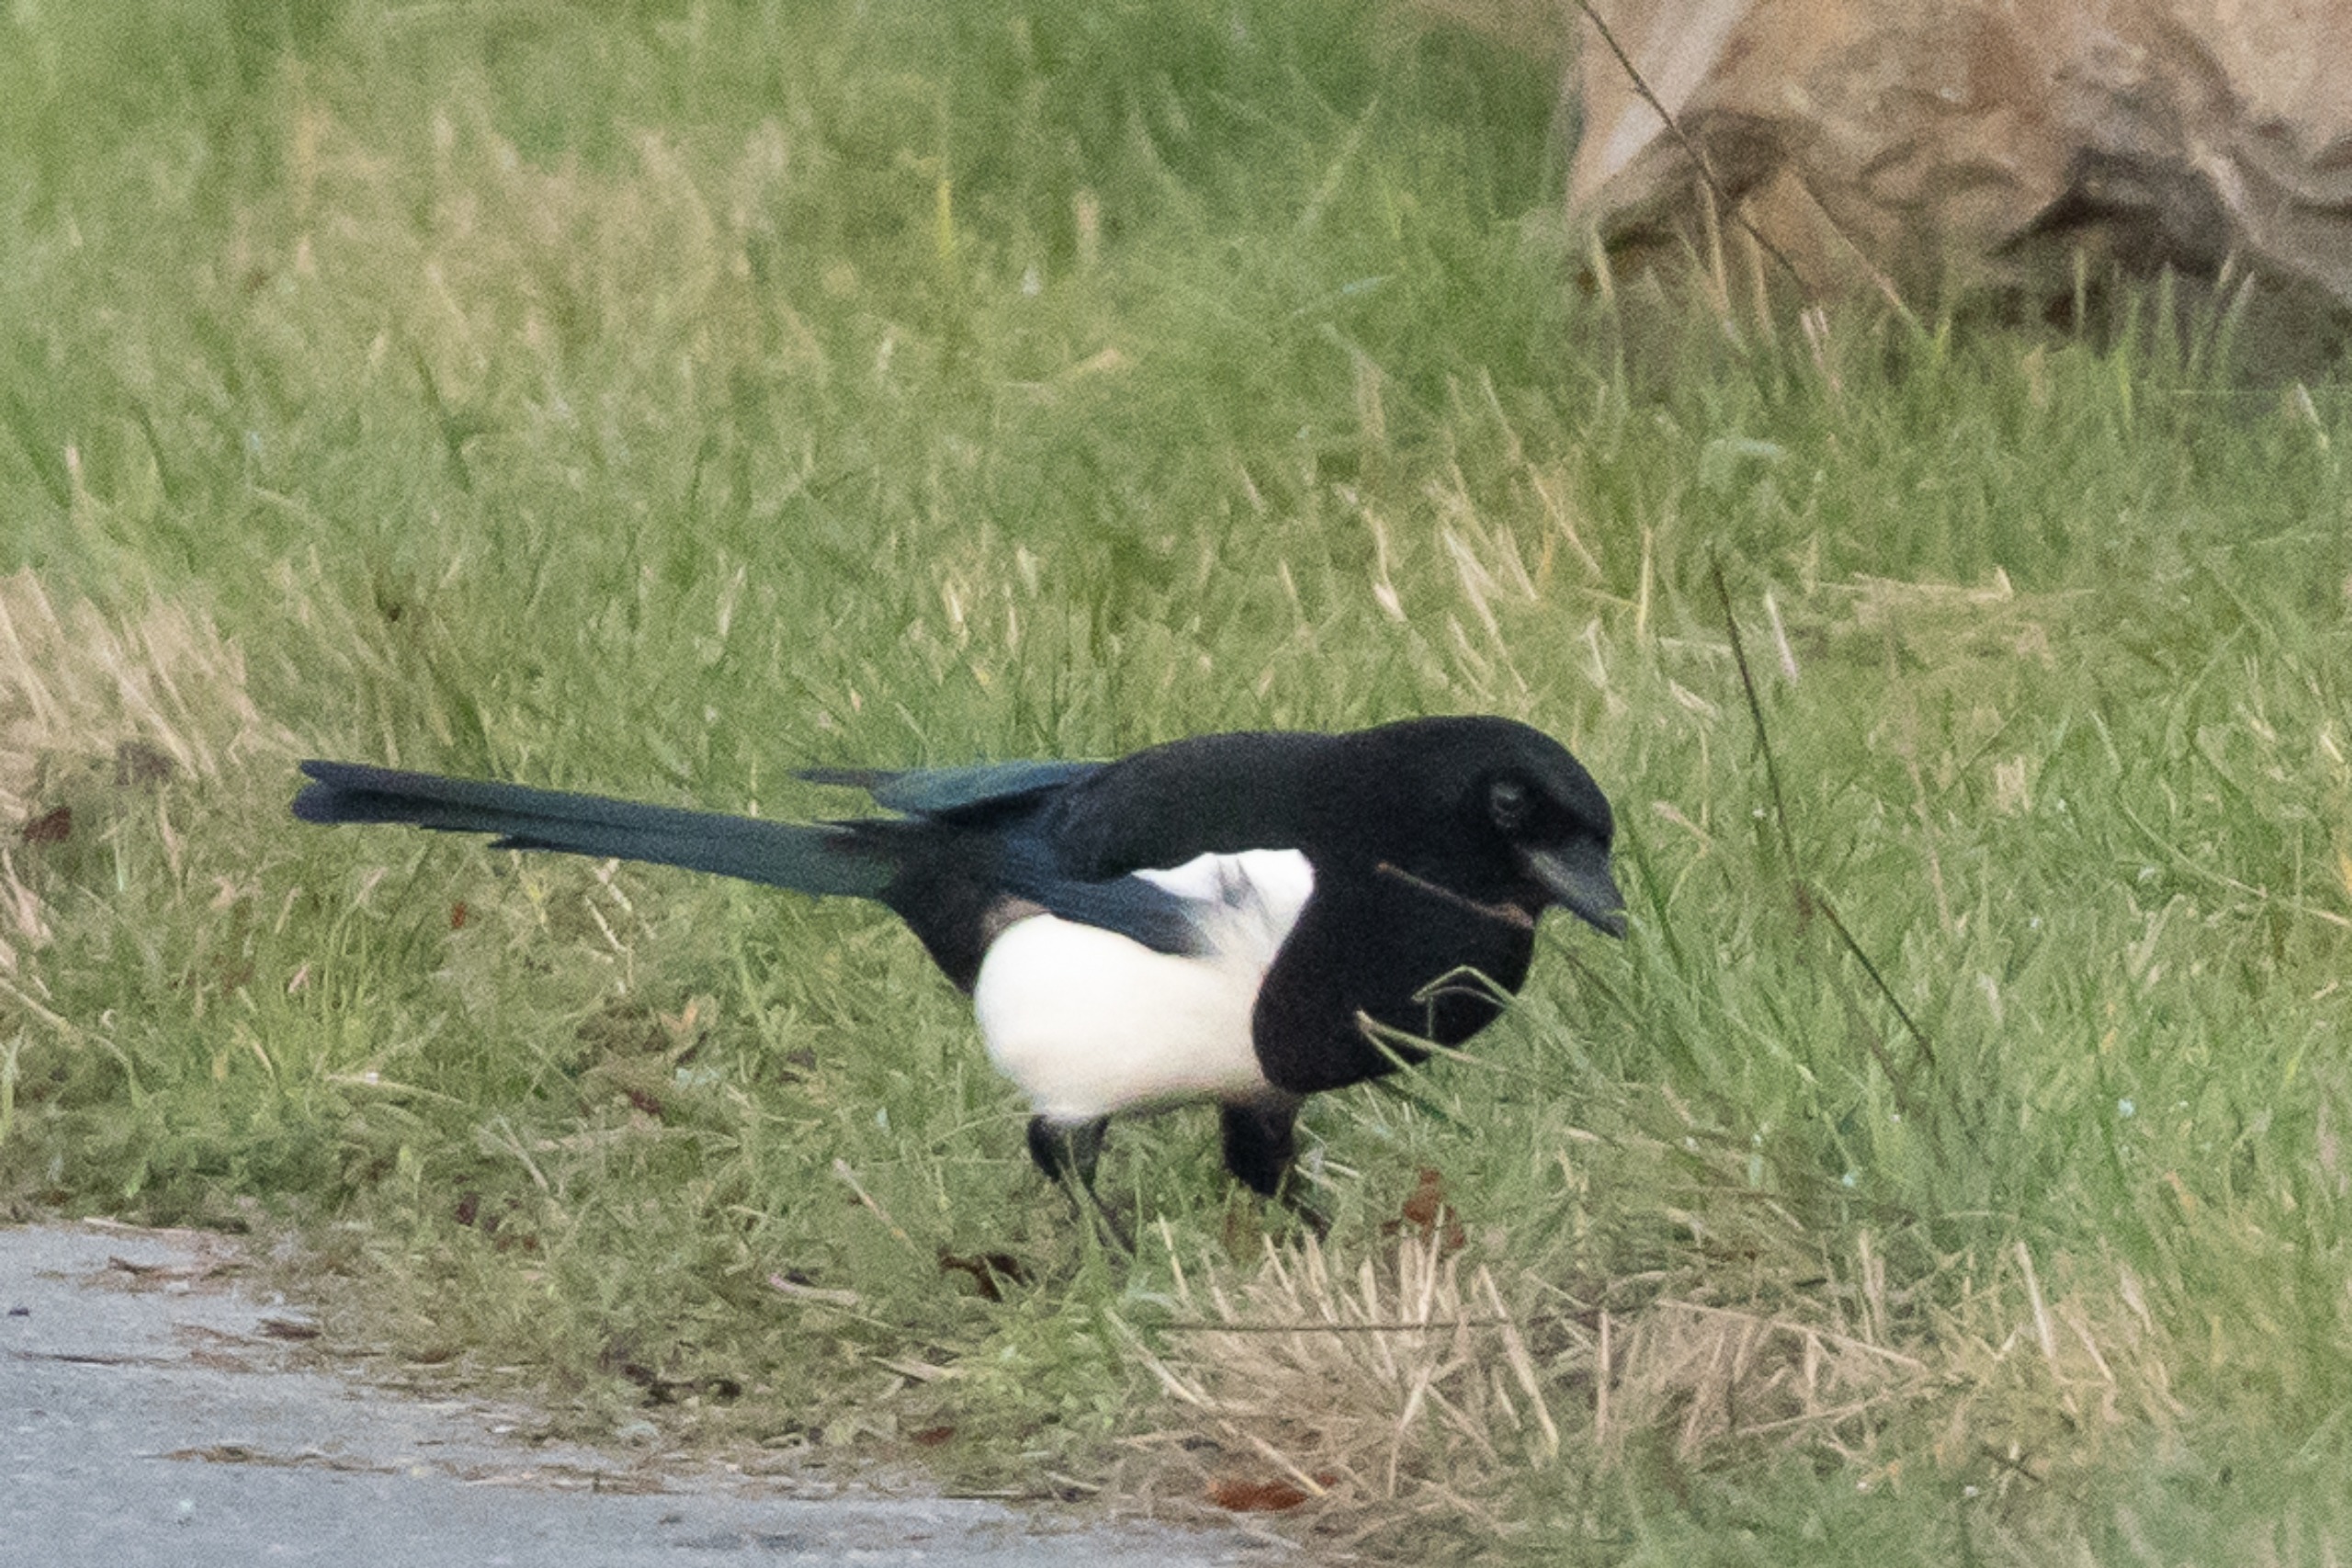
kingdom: Animalia
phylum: Chordata
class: Aves
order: Passeriformes
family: Corvidae
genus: Pica
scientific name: Pica pica
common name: Husskade
